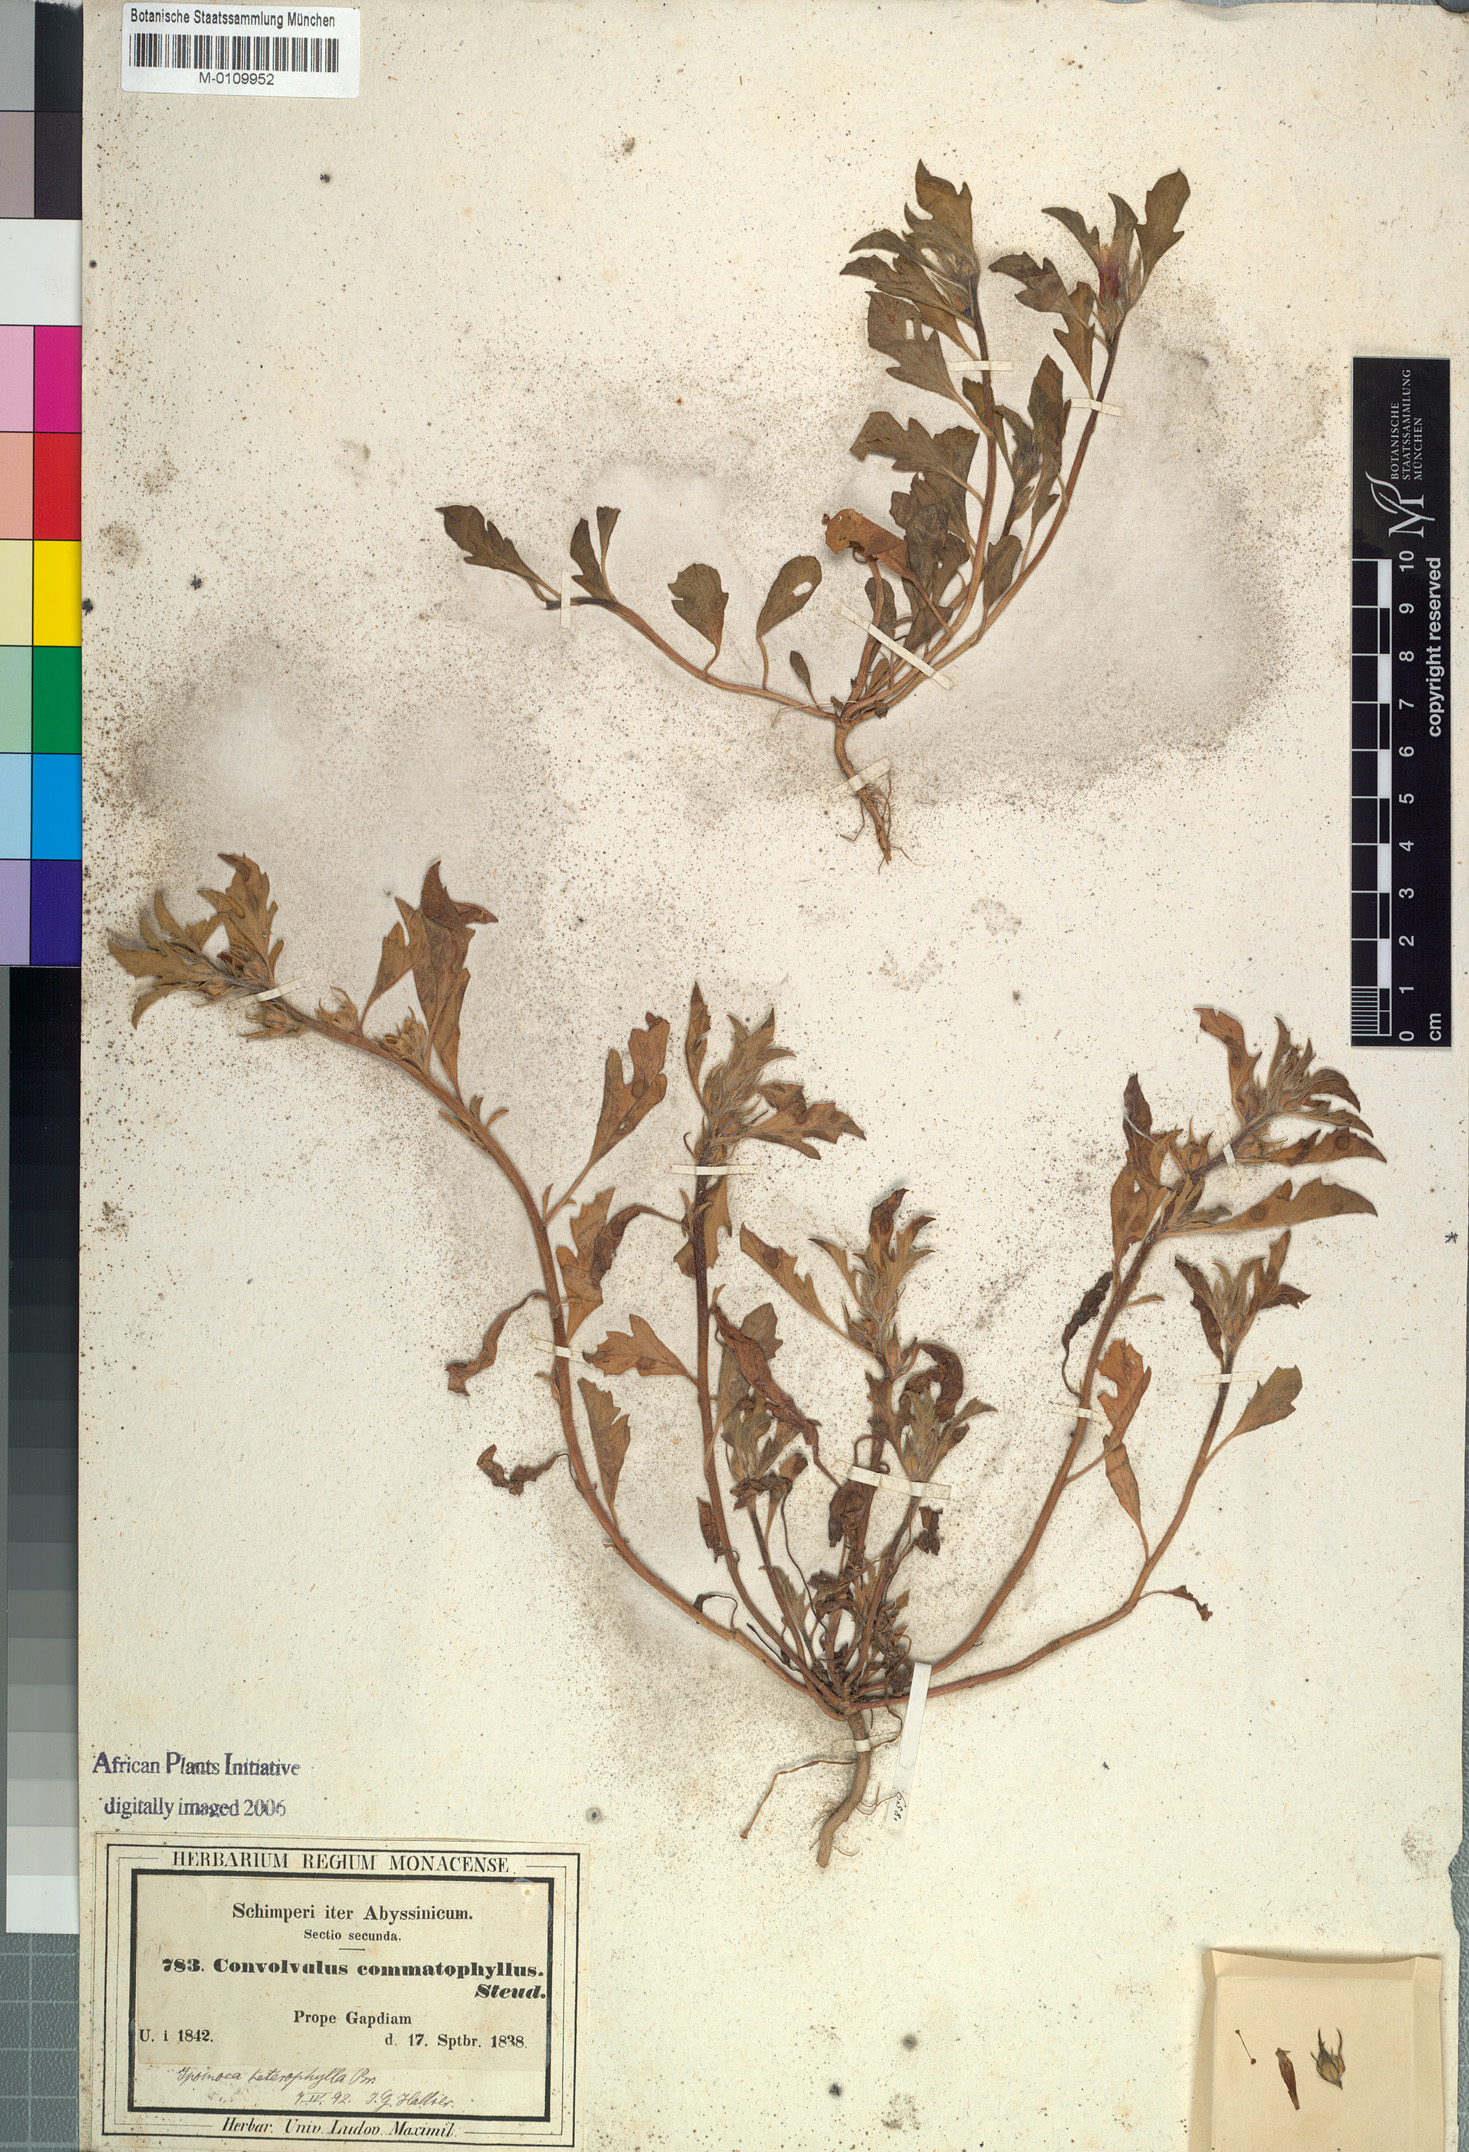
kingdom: Plantae
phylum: Tracheophyta
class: Magnoliopsida
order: Solanales
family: Convolvulaceae
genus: Ipomoea
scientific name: Ipomoea polymorpha
